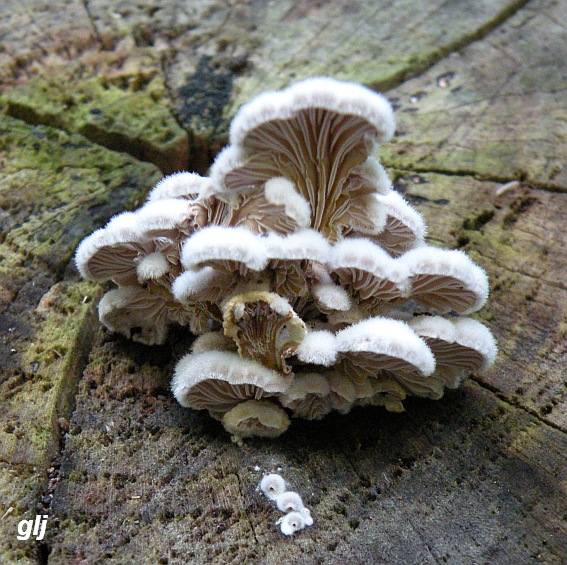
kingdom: Fungi
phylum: Basidiomycota
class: Agaricomycetes
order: Agaricales
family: Schizophyllaceae
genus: Schizophyllum
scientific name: Schizophyllum commune
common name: kløvblad
